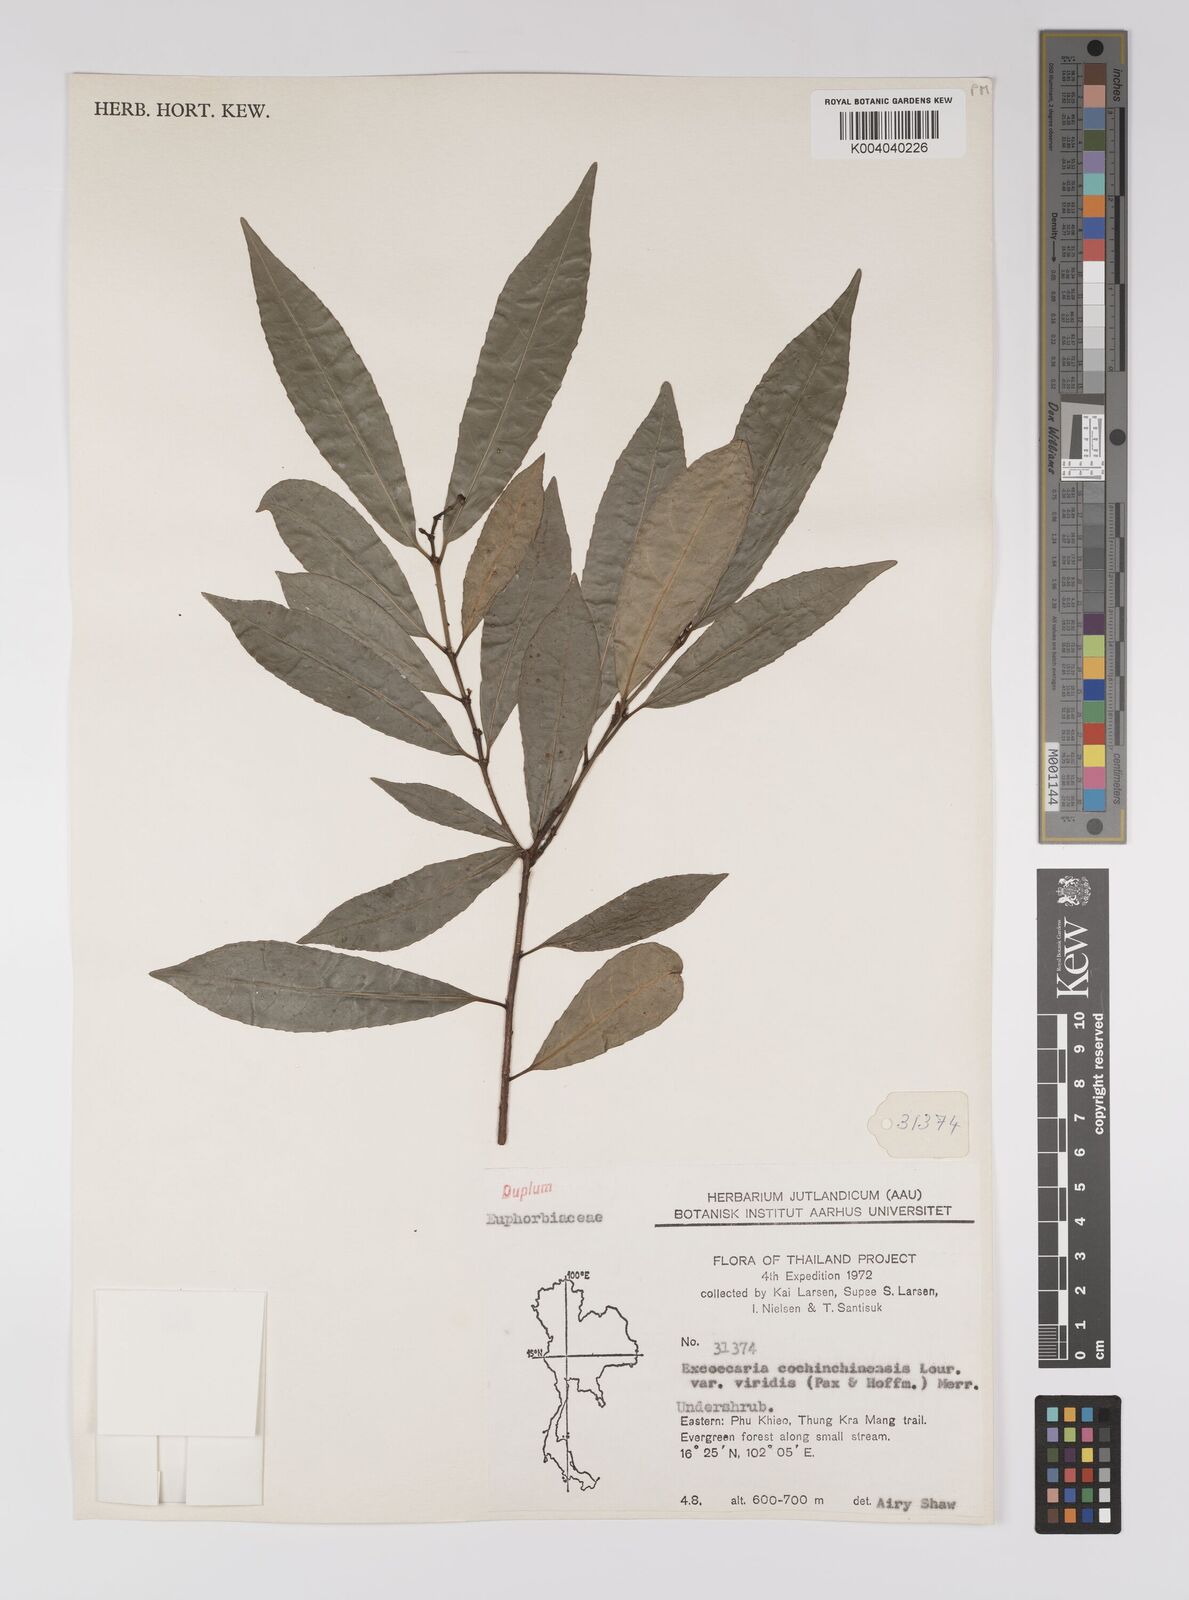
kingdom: Plantae
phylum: Tracheophyta
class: Magnoliopsida
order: Malpighiales
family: Euphorbiaceae
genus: Excoecaria
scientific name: Excoecaria cochinchinensis
